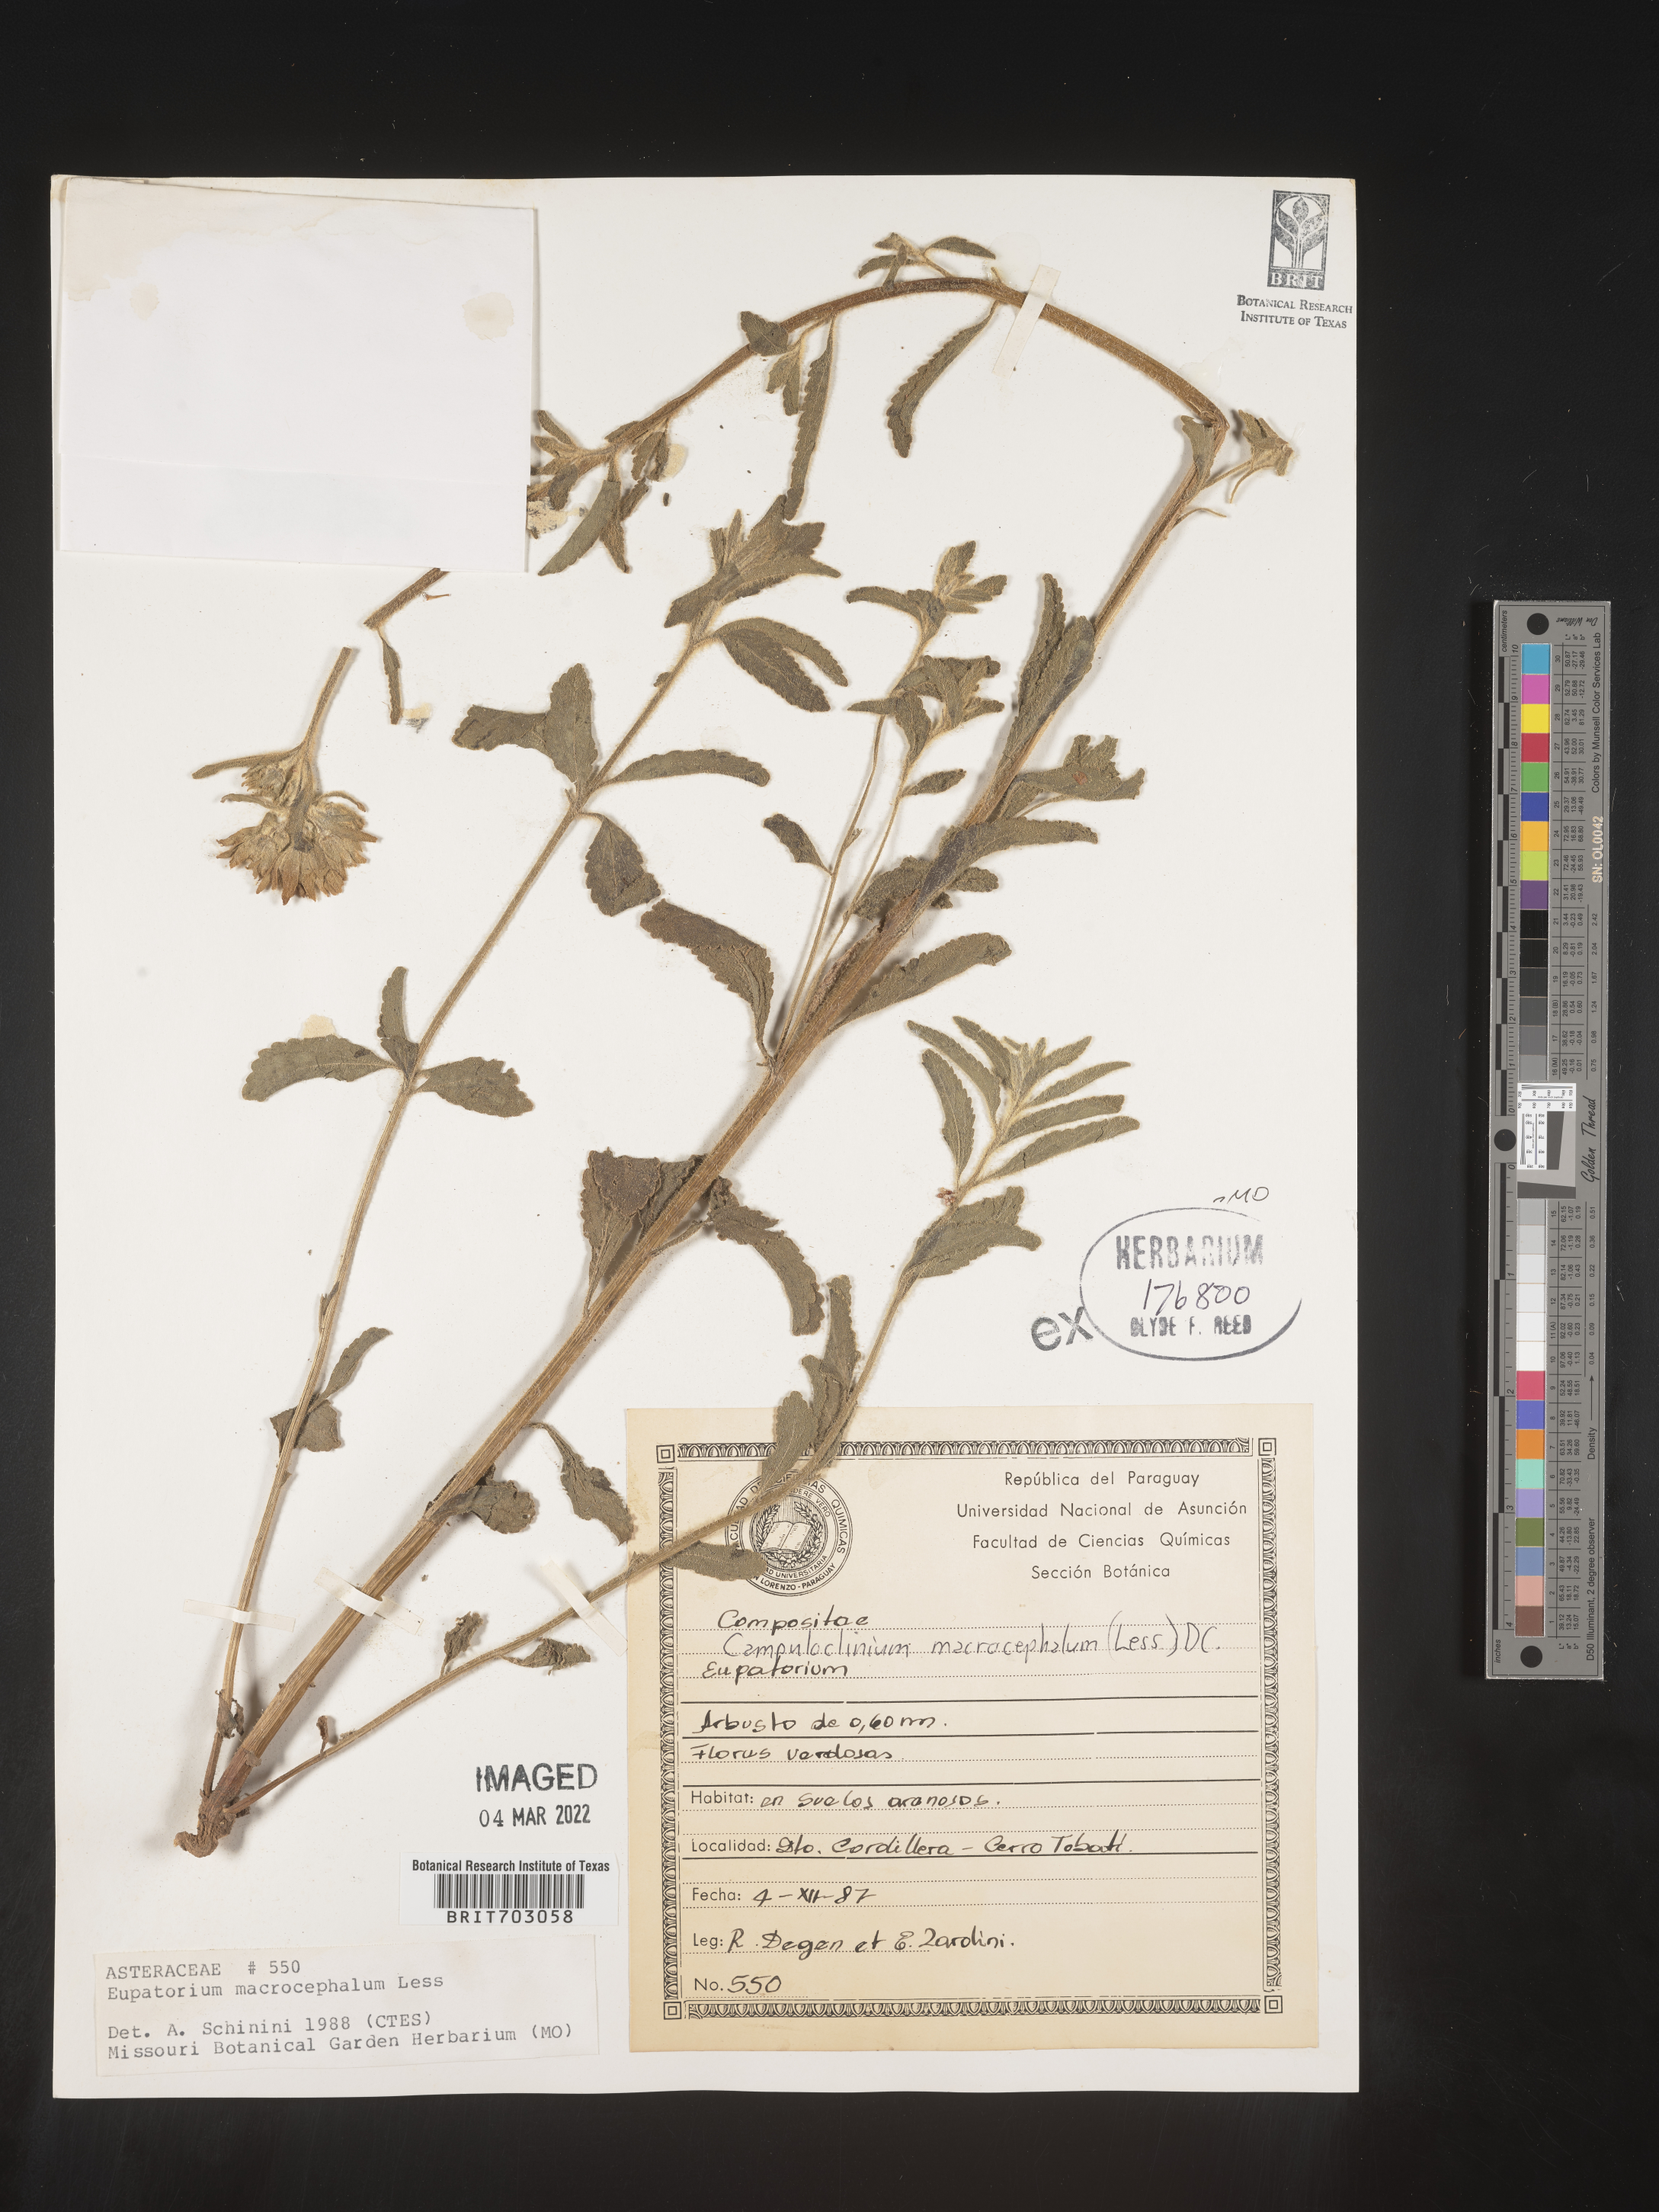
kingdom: Plantae
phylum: Tracheophyta
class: Magnoliopsida
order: Asterales
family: Asteraceae
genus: Eupatorium
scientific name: Eupatorium
